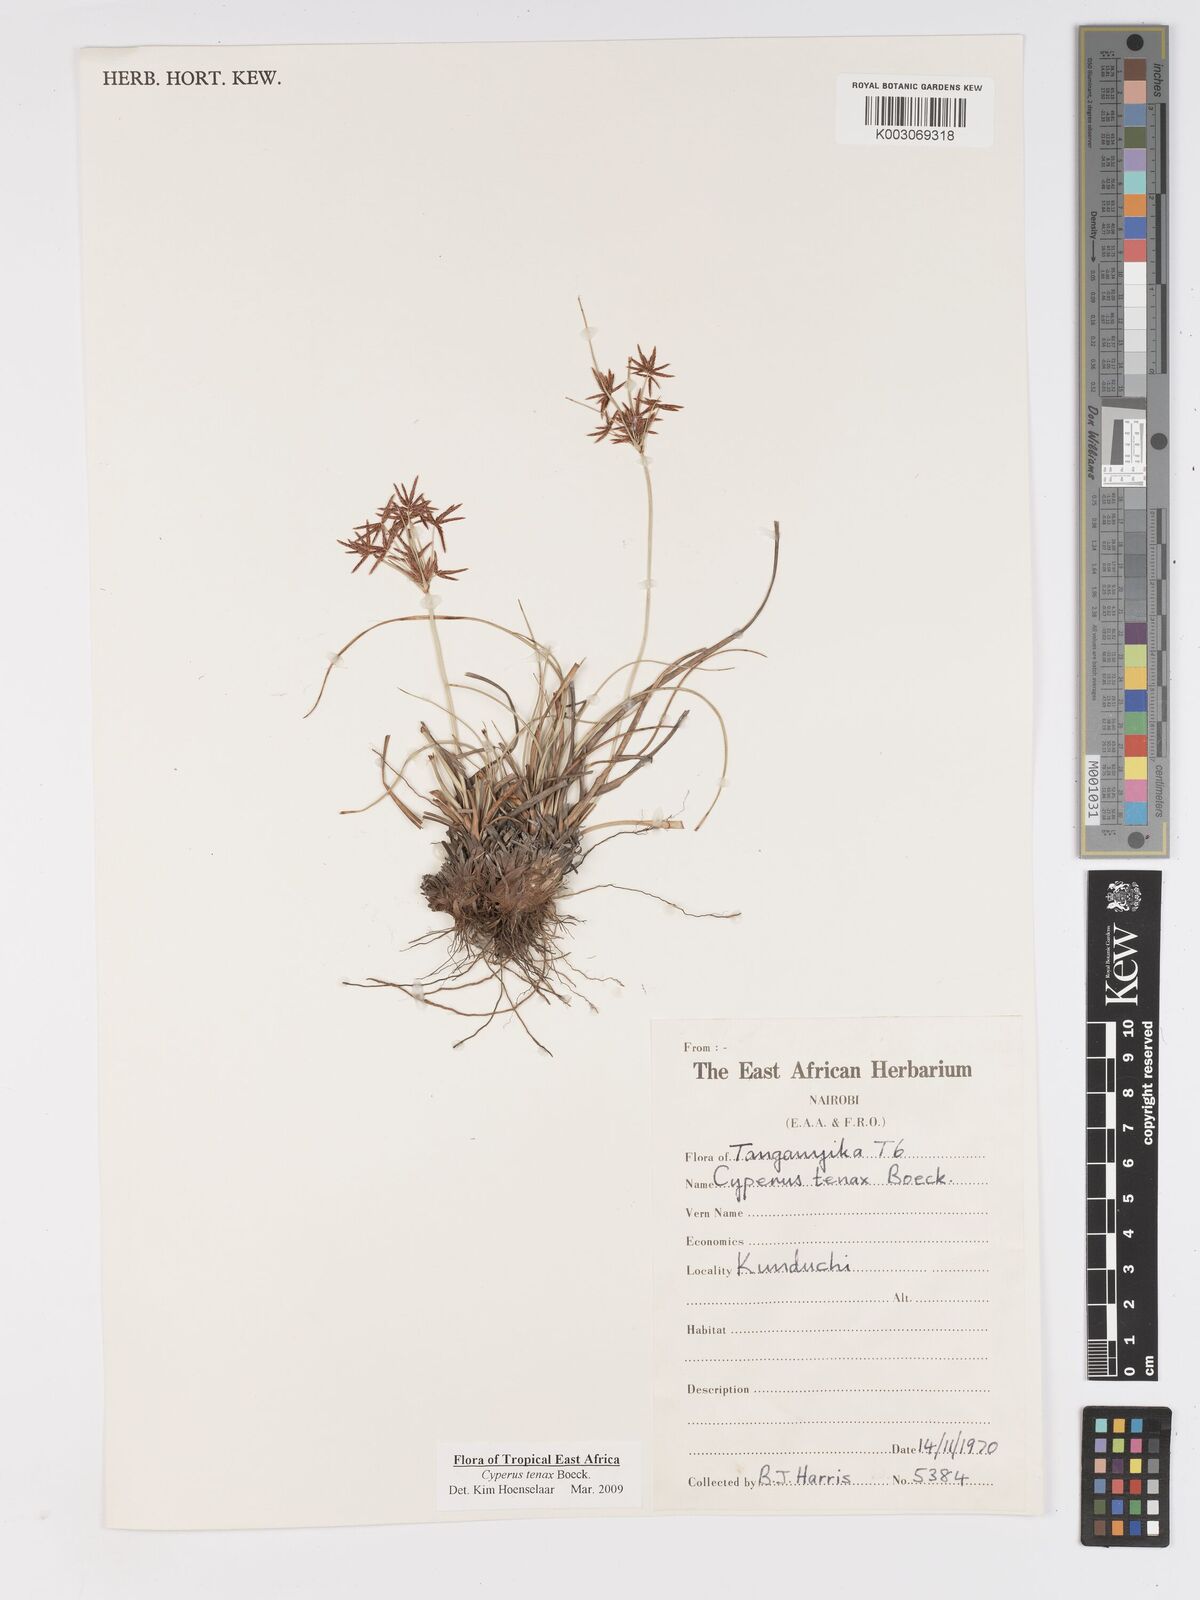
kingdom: Plantae
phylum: Tracheophyta
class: Liliopsida
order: Poales
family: Cyperaceae
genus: Cyperus
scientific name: Cyperus tenax
